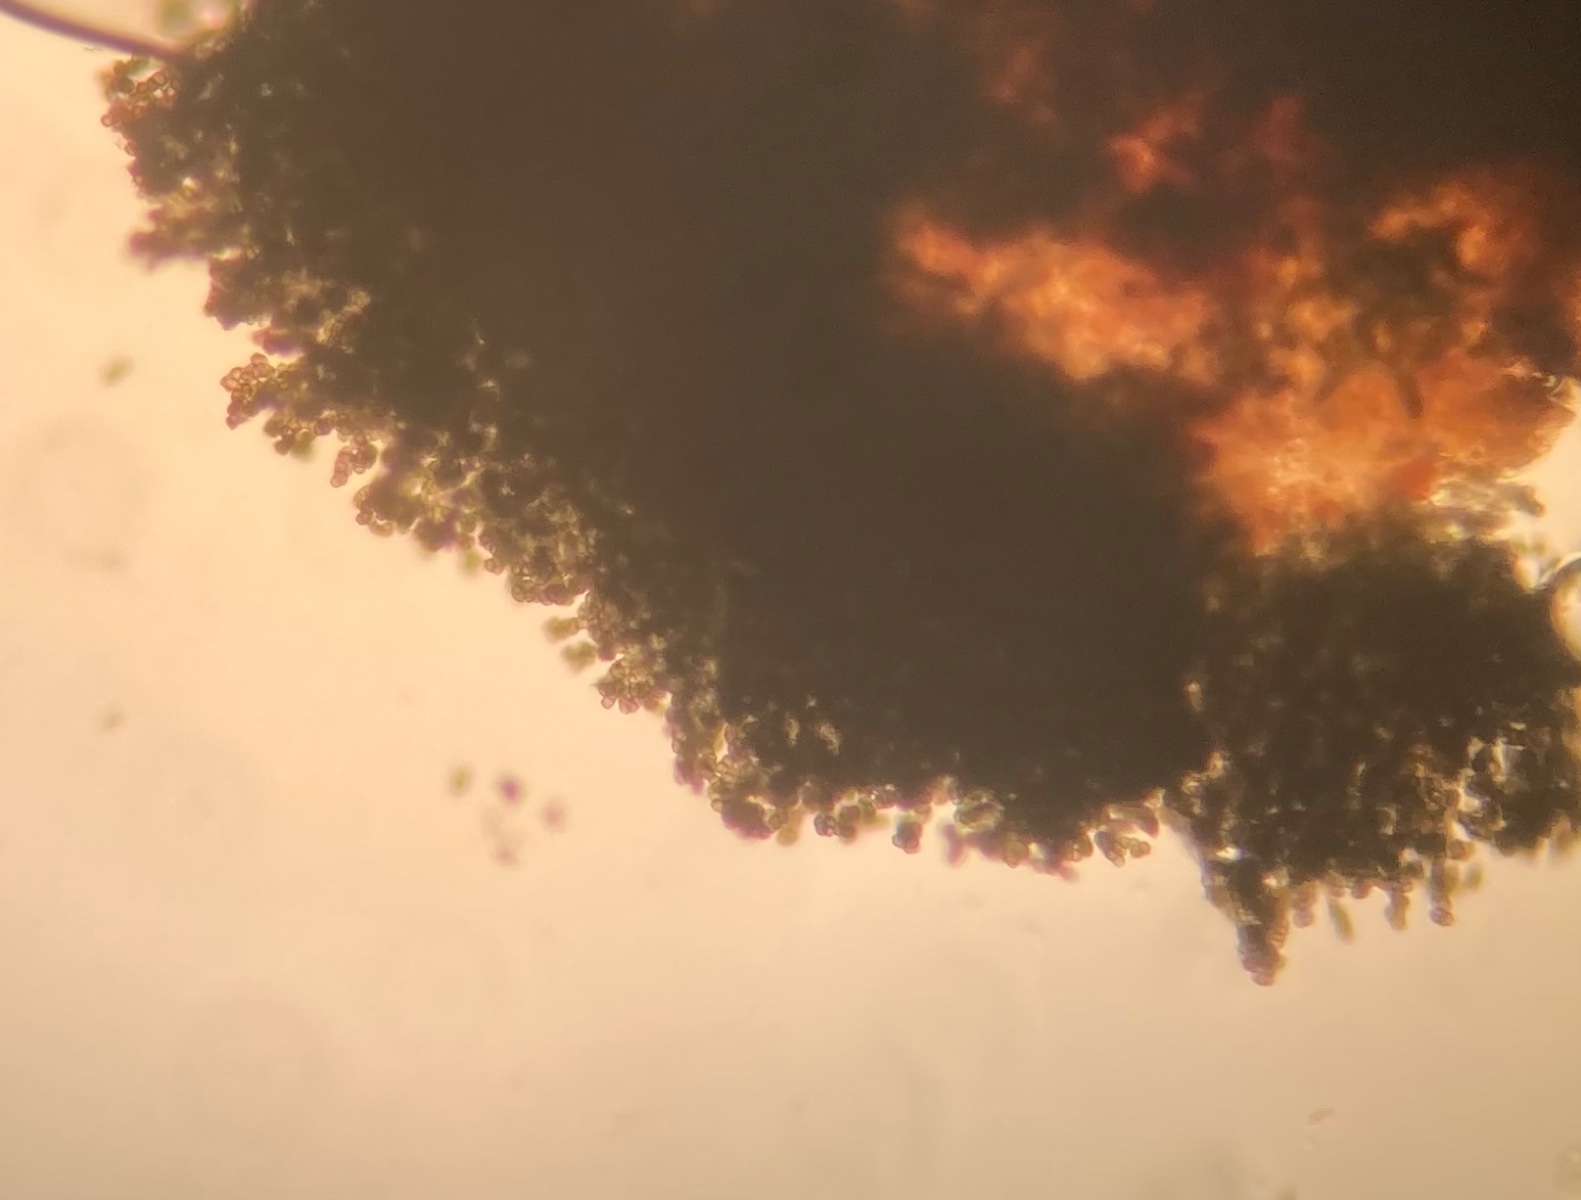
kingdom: Fungi
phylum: Ascomycota
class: Leotiomycetes
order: Helotiales
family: Mollisiaceae
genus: Trimmatostroma
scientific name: Trimmatostroma betulinum
